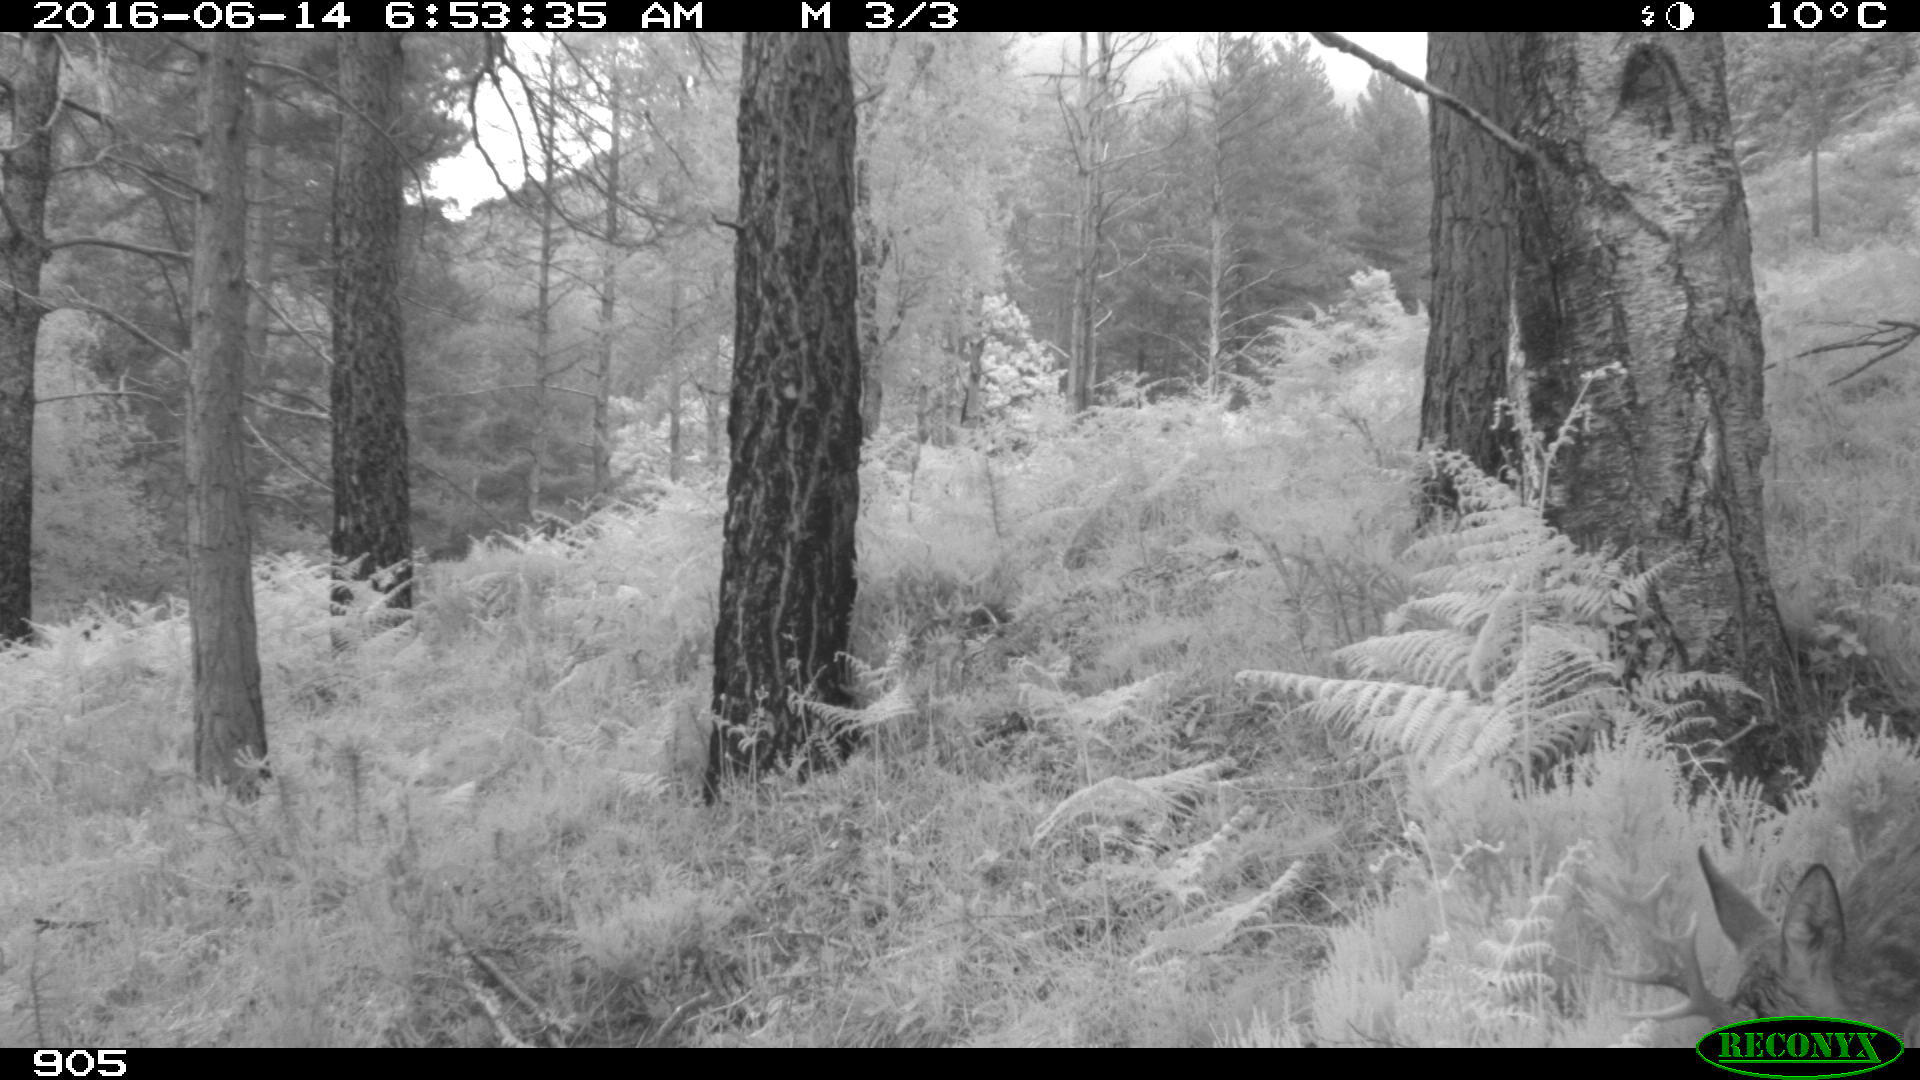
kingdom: Animalia
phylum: Chordata
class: Mammalia
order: Artiodactyla
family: Cervidae
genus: Capreolus
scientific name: Capreolus capreolus
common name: Western roe deer
